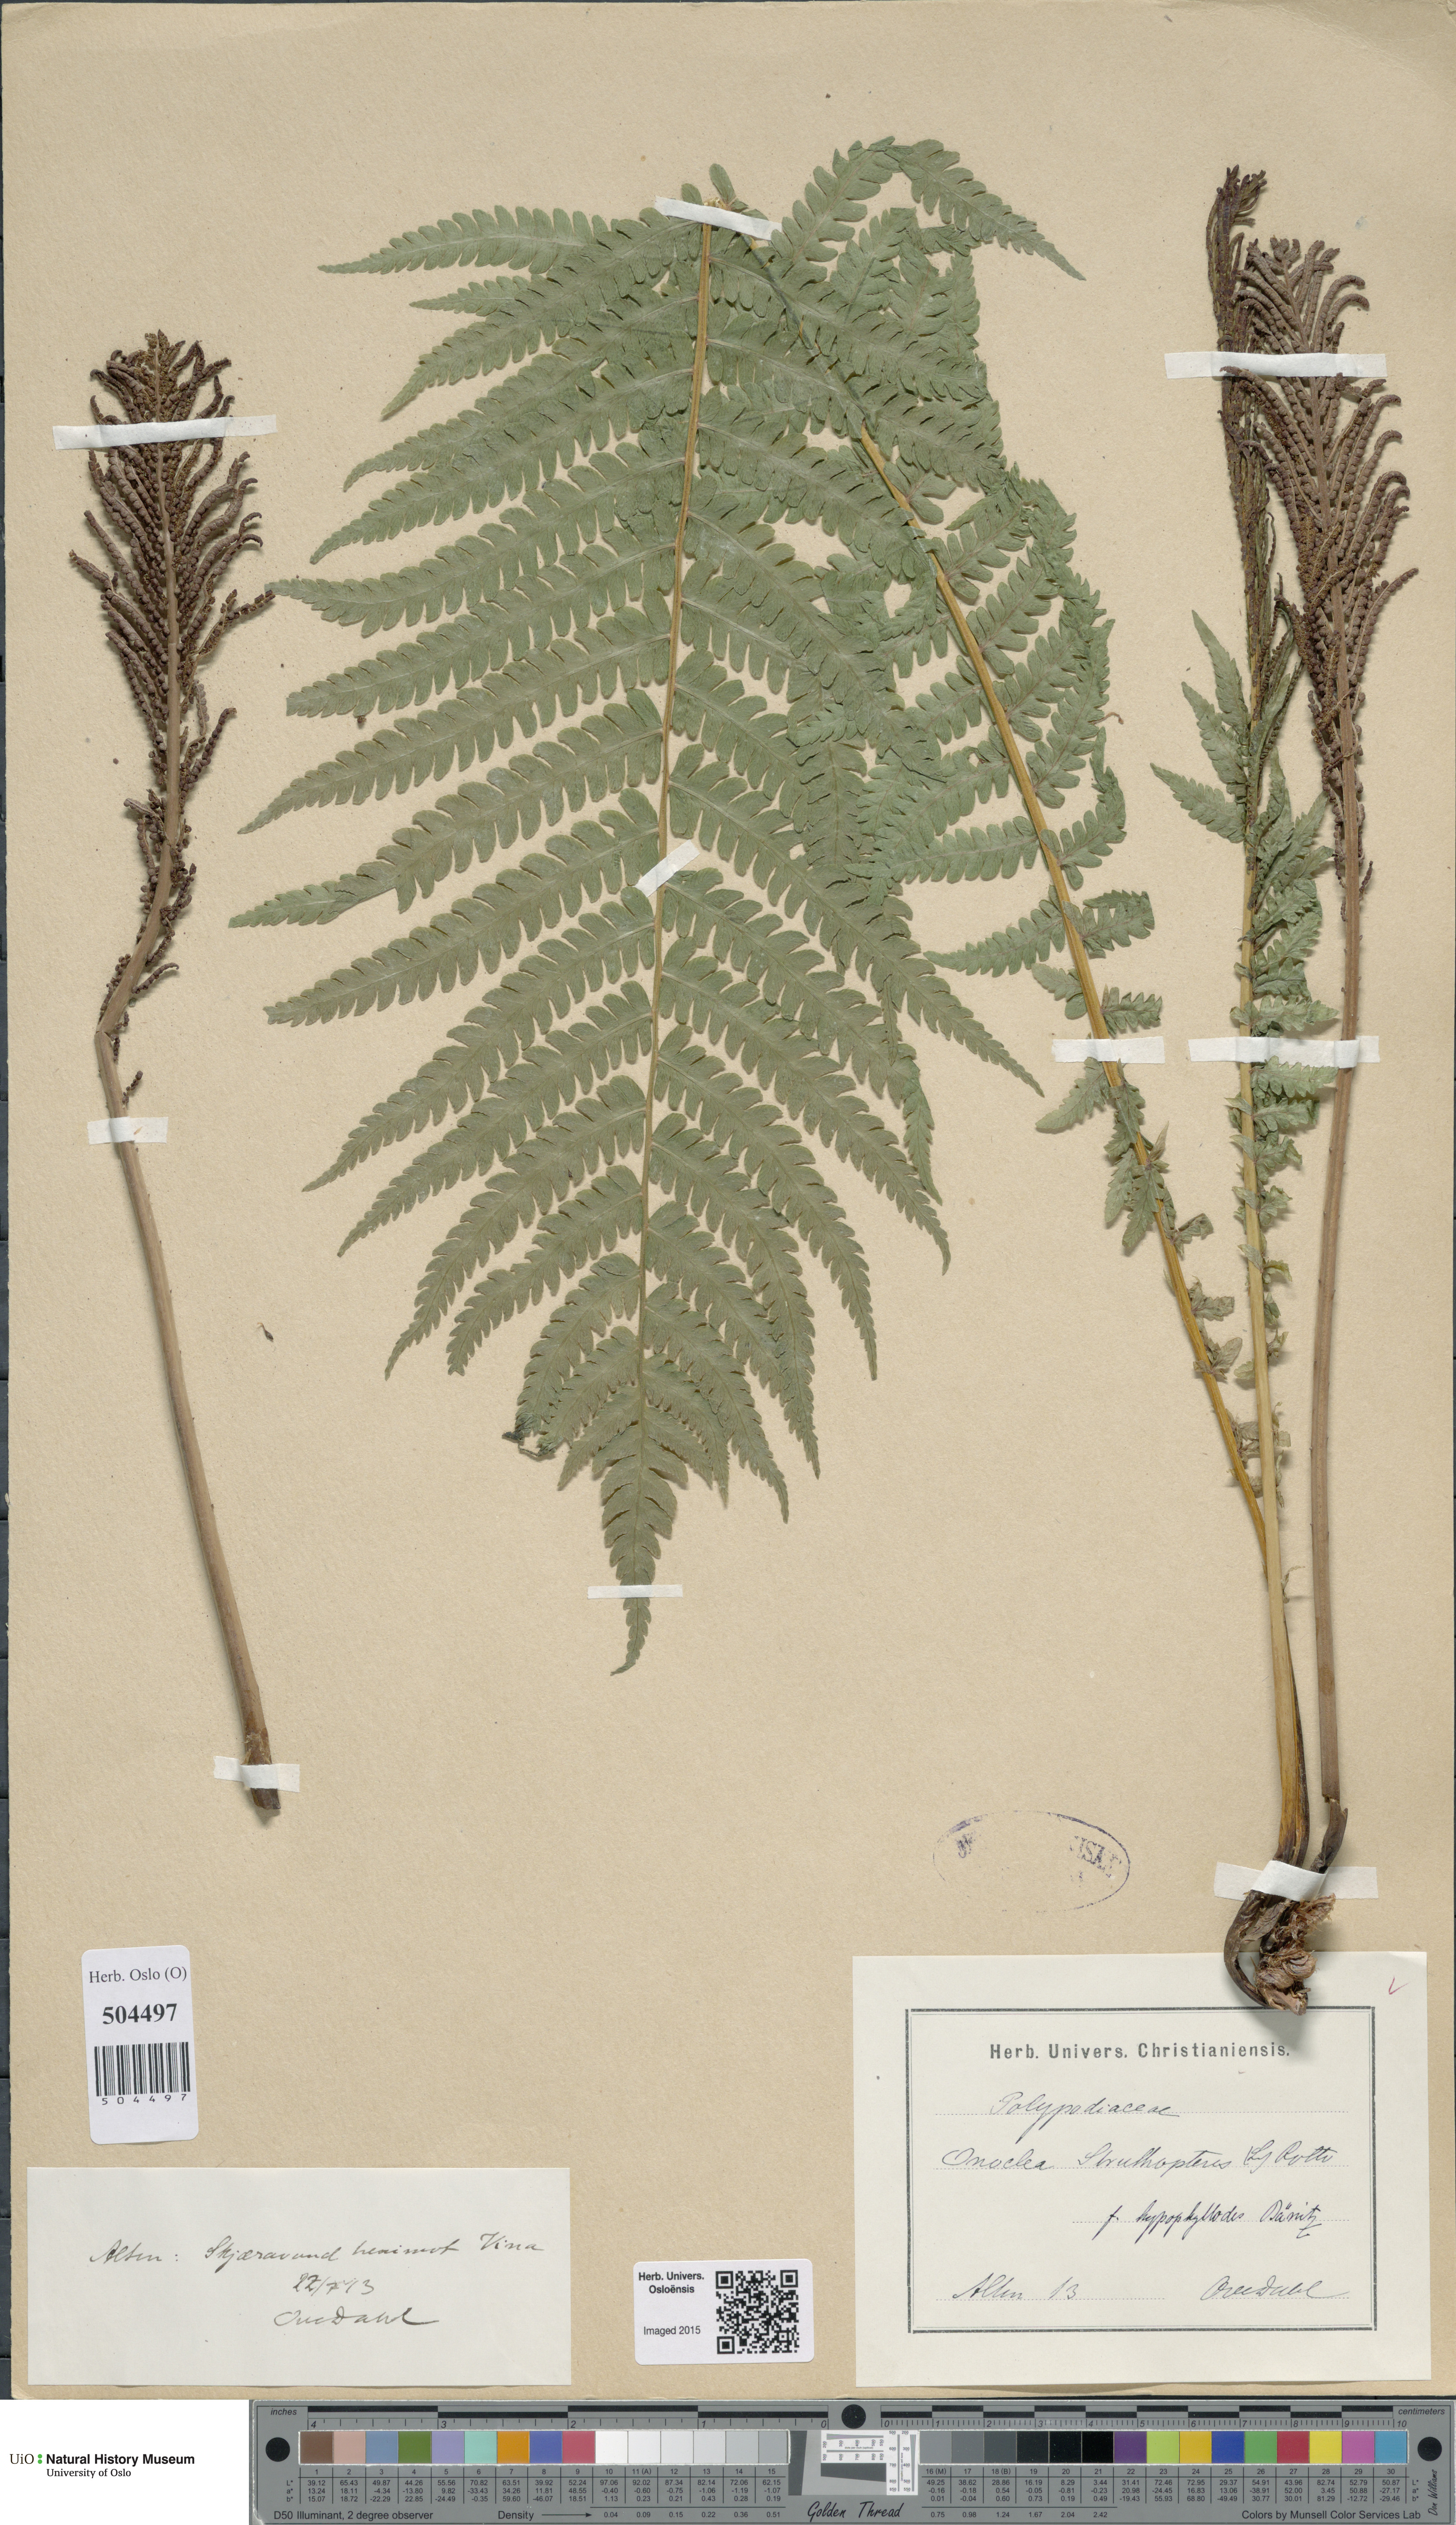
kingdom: Plantae
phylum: Tracheophyta
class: Polypodiopsida
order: Polypodiales
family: Onocleaceae
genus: Matteuccia
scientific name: Matteuccia struthiopteris
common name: Ostrich fern
